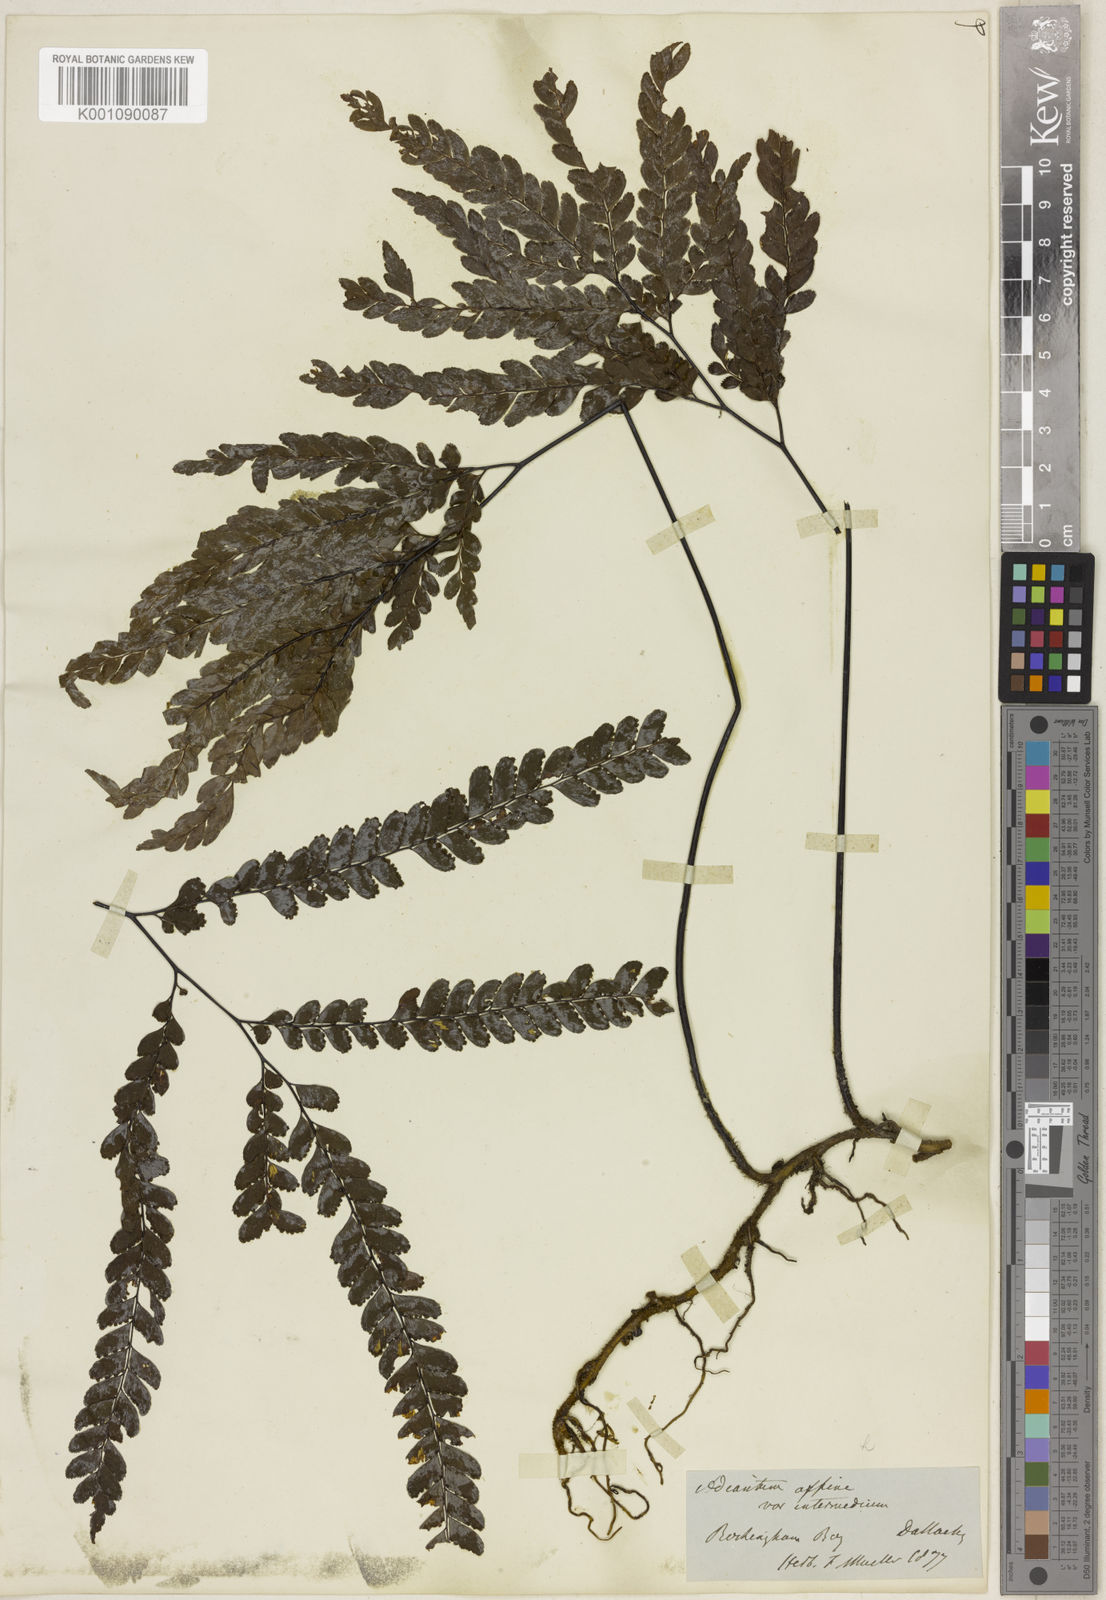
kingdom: Plantae
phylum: Tracheophyta
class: Polypodiopsida
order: Polypodiales
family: Pteridaceae
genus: Adiantum
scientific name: Adiantum silvaticum
